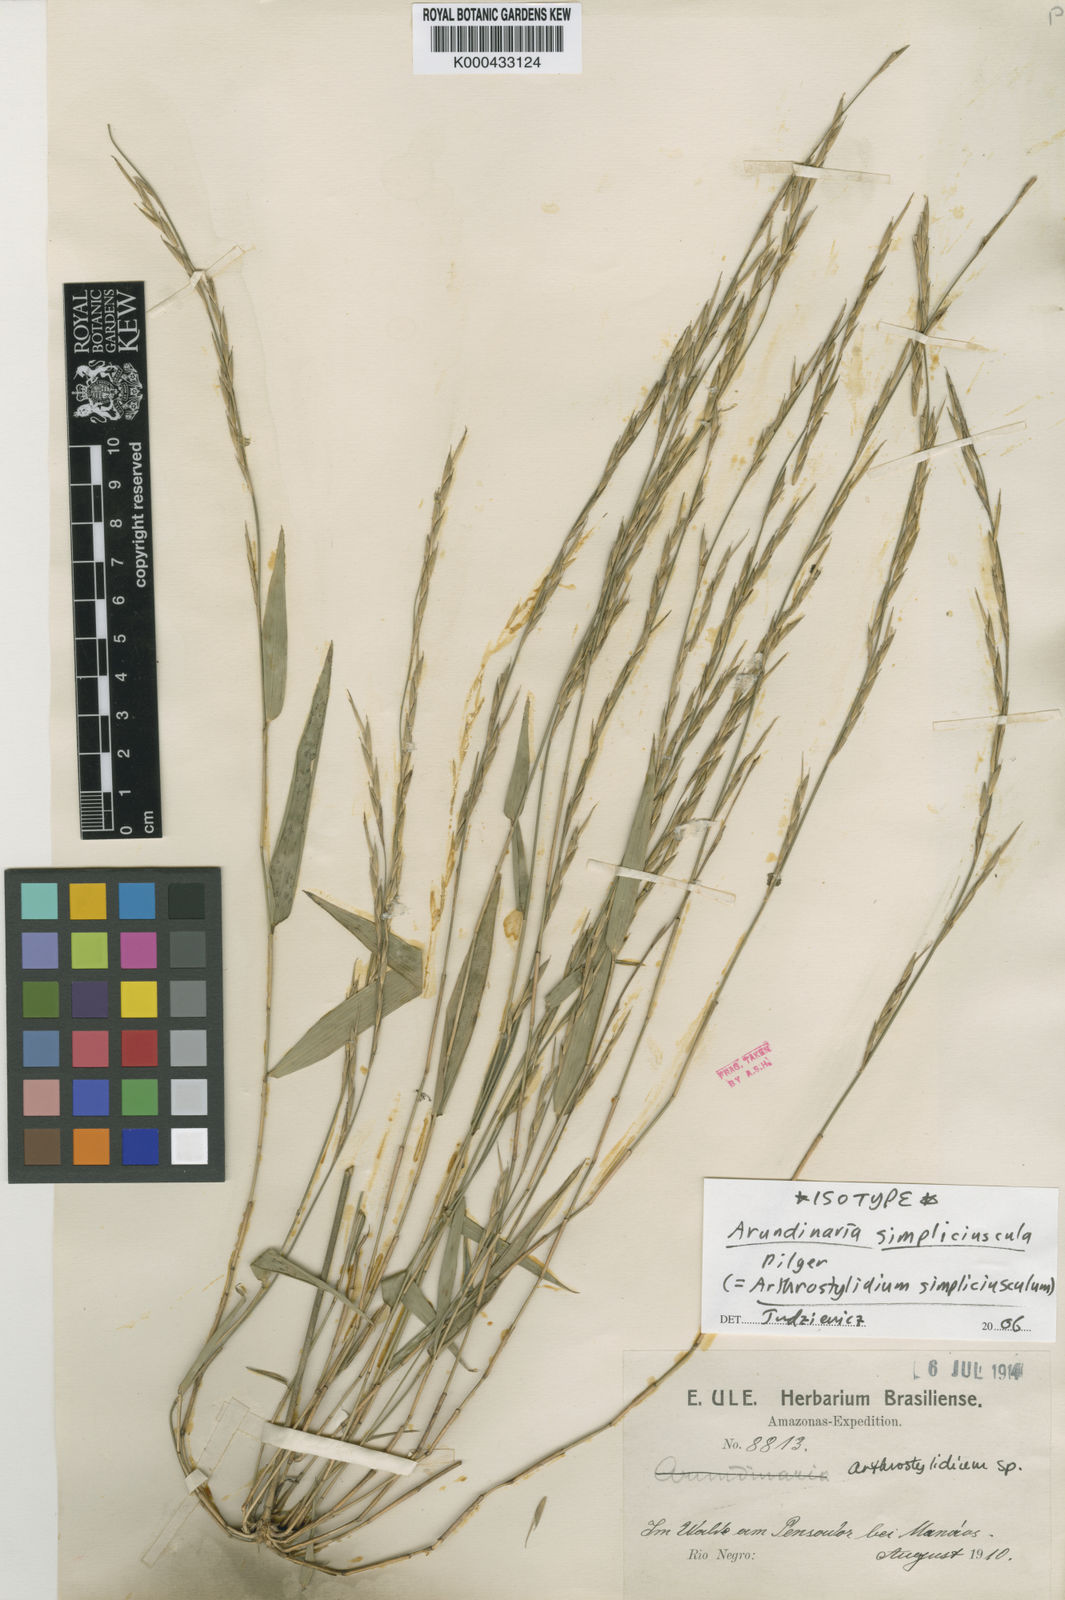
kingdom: Plantae
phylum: Tracheophyta
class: Liliopsida
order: Poales
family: Poaceae
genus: Arthrostylidium
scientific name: Arthrostylidium simpliciusculum
